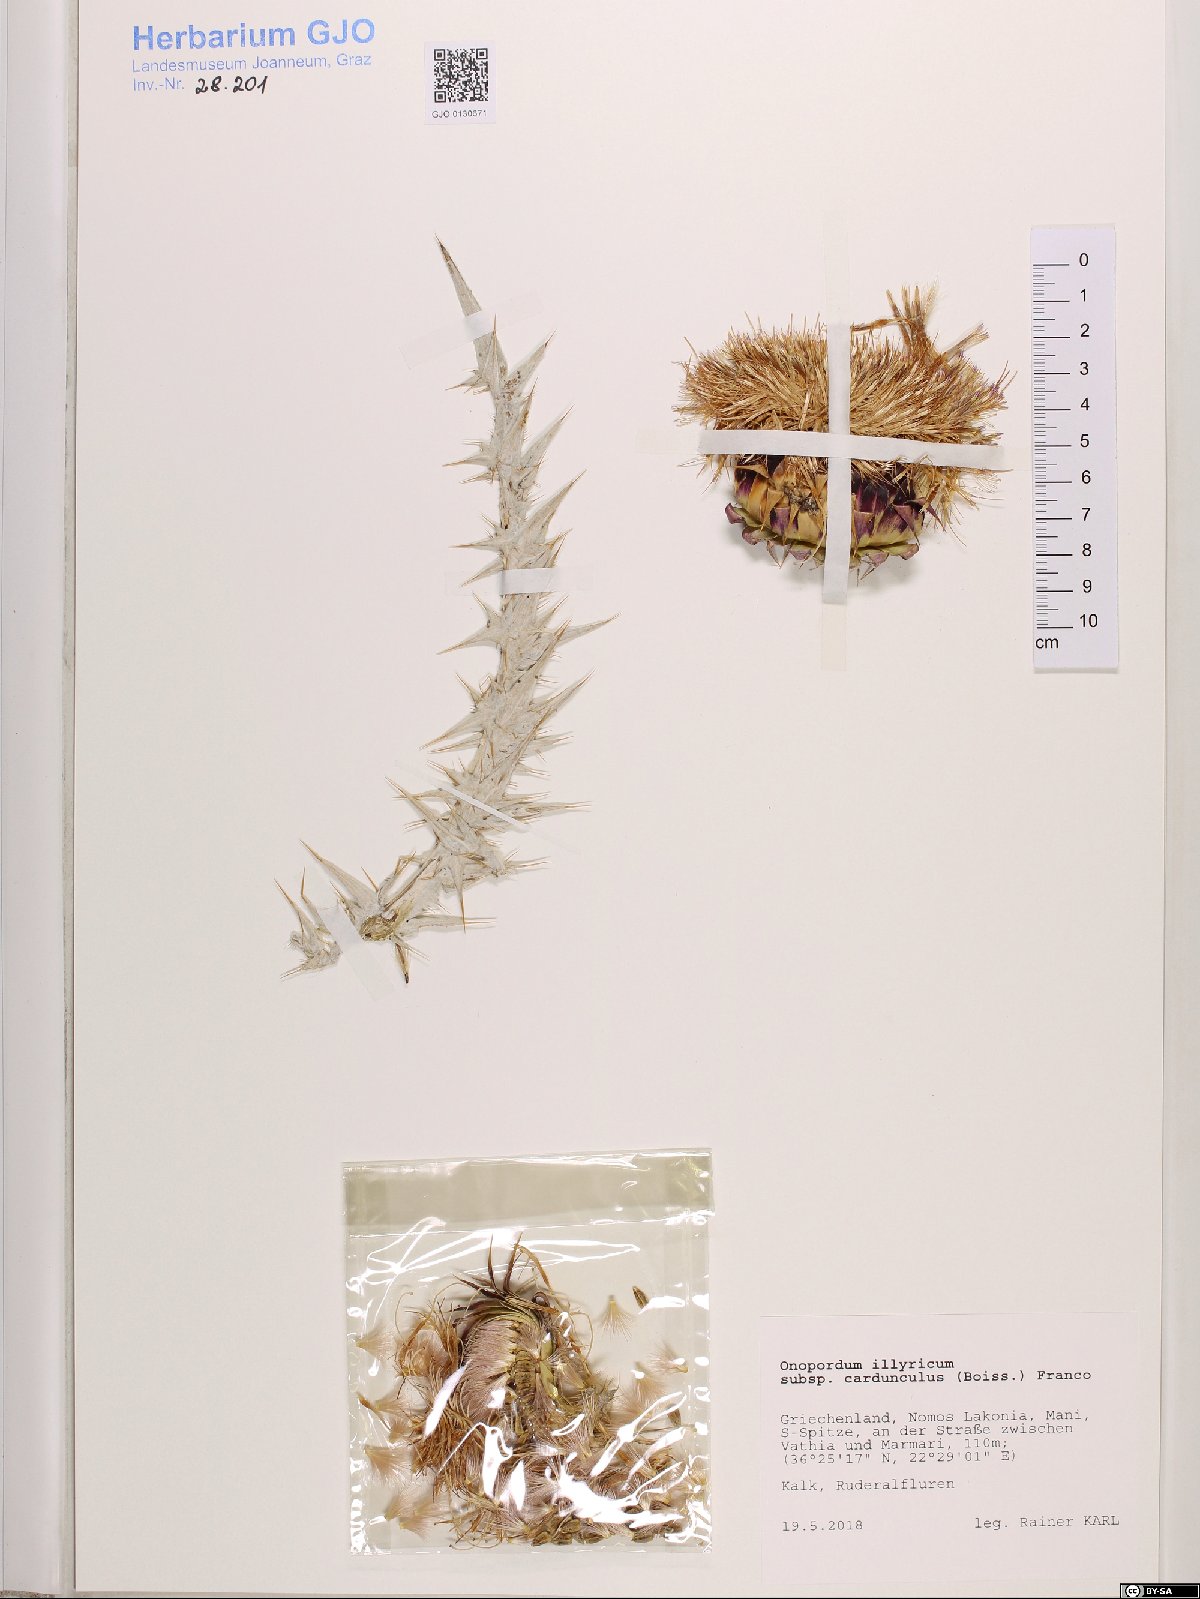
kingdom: Plantae
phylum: Tracheophyta
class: Magnoliopsida
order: Asterales
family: Asteraceae
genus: Onopordum
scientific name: Onopordum illyricum
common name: Illyrian thistle
